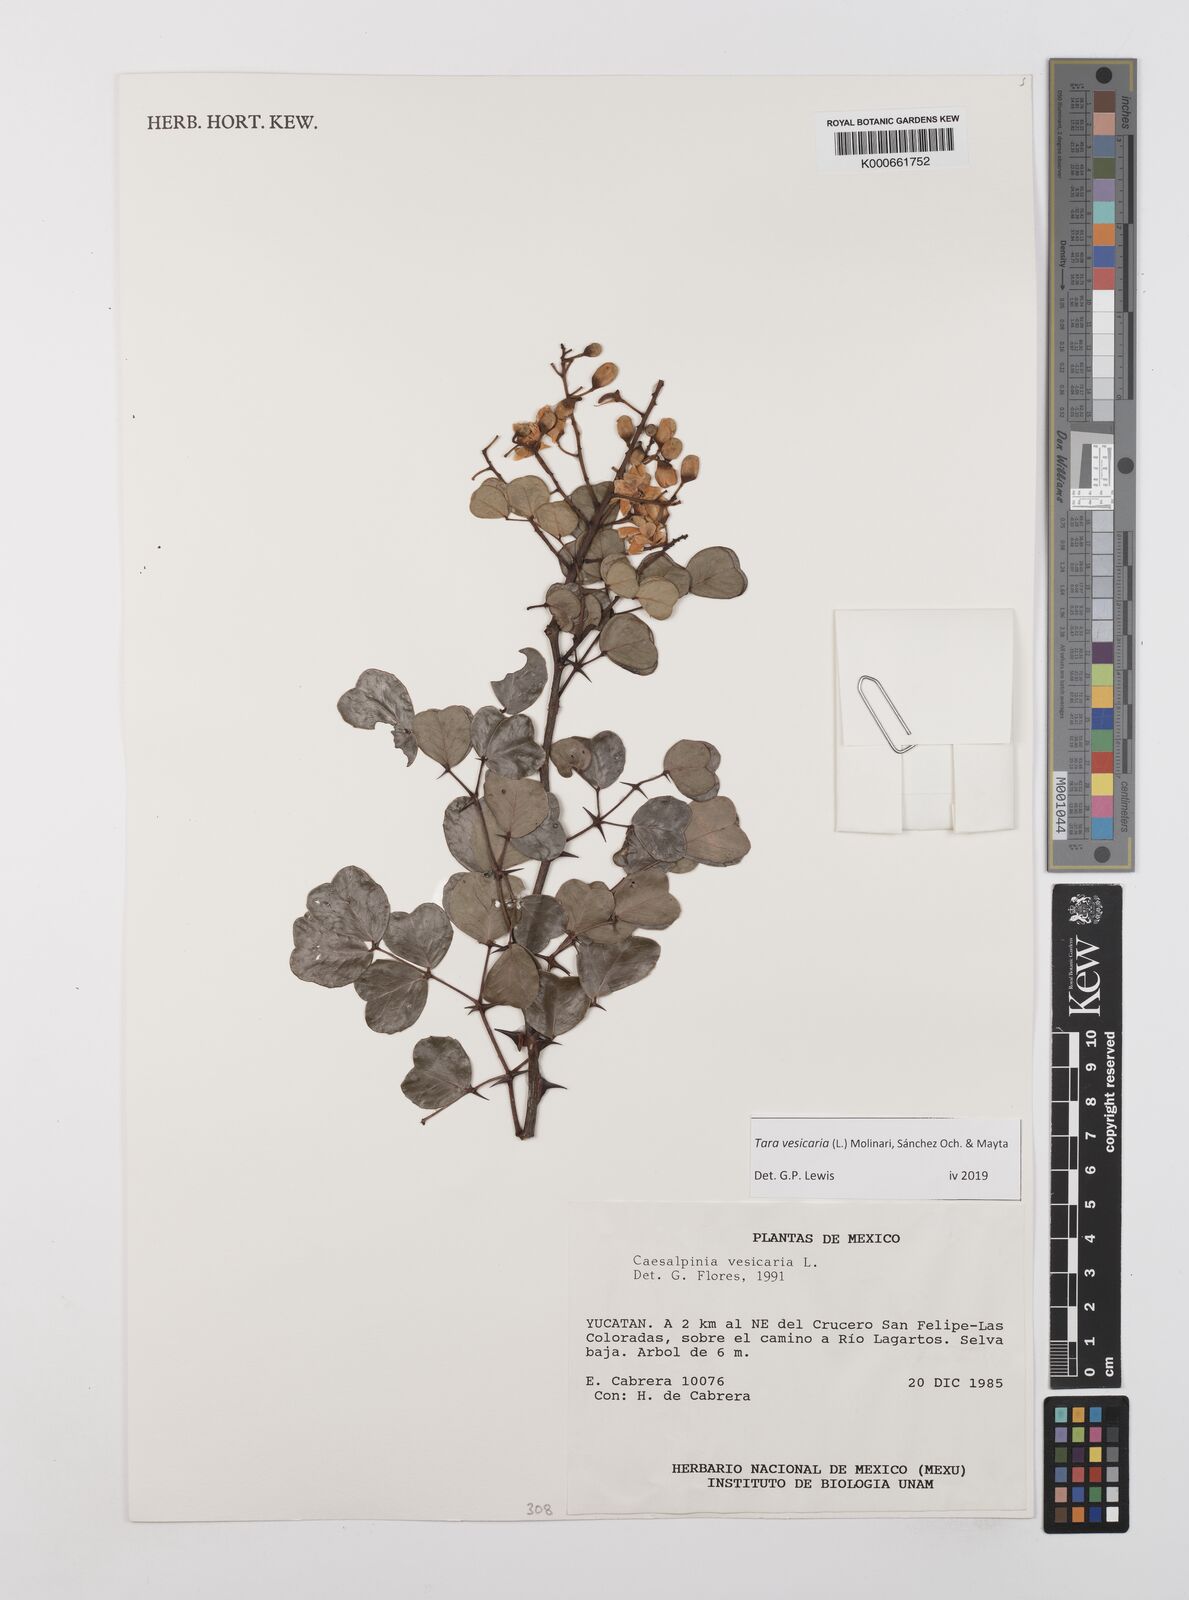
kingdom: Plantae
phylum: Tracheophyta
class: Magnoliopsida
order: Fabales
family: Fabaceae
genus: Tara
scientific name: Tara vesicaria
